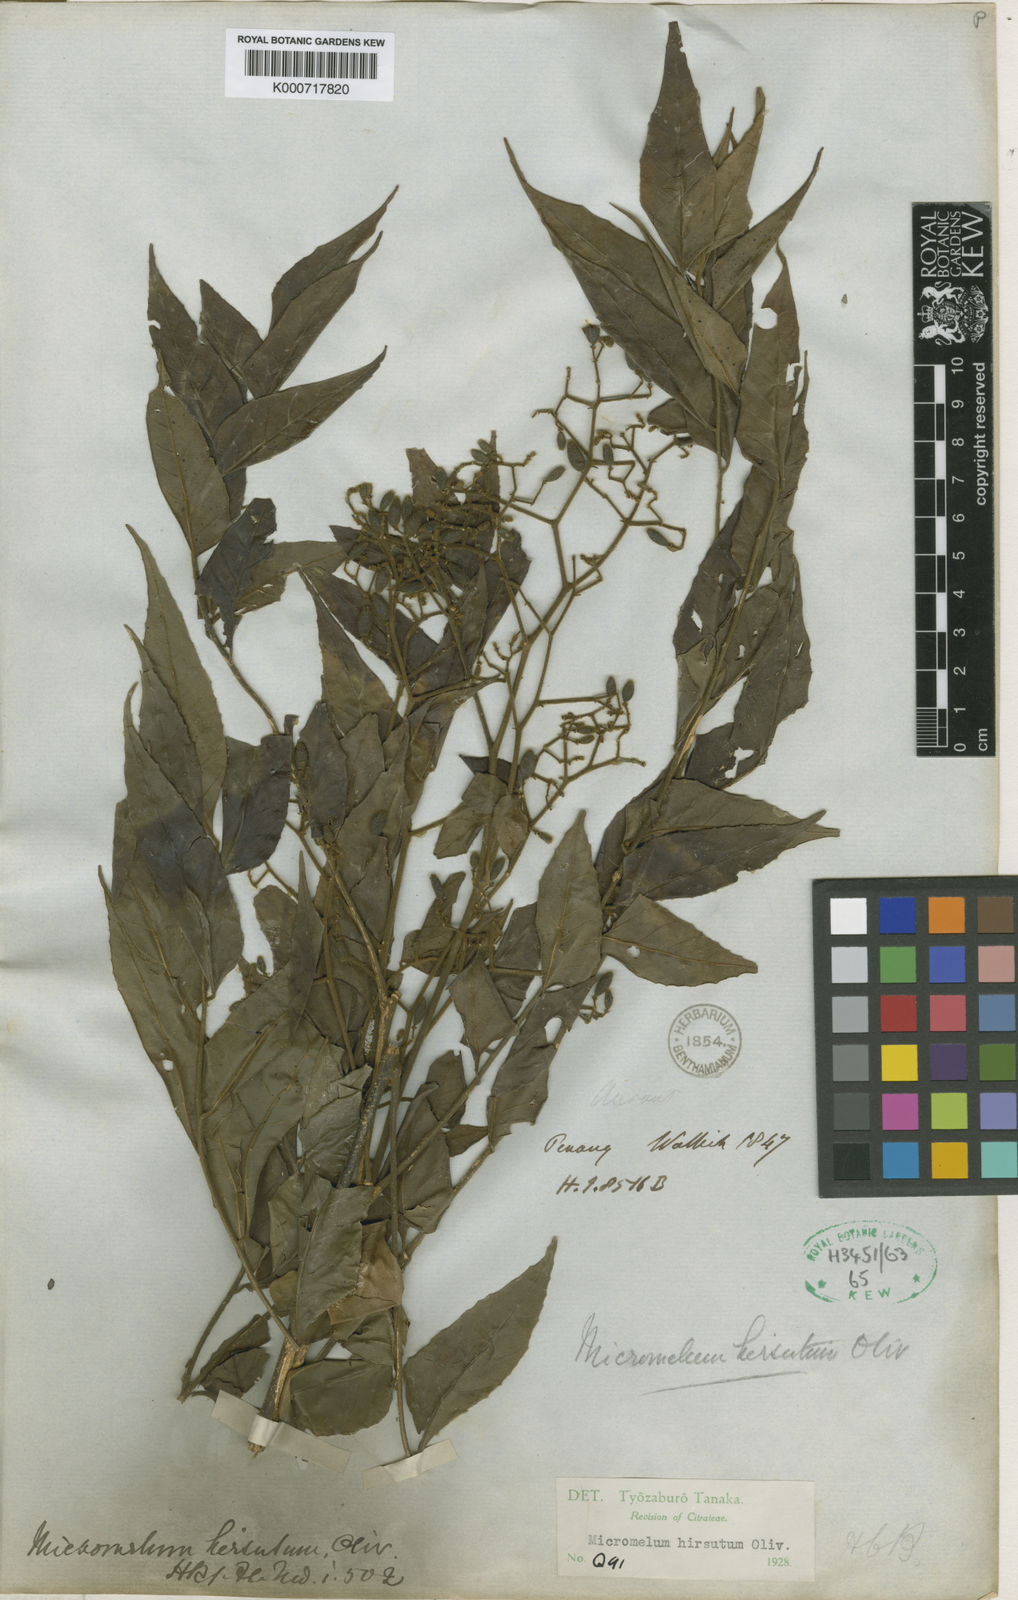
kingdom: Plantae
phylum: Tracheophyta
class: Magnoliopsida
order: Sapindales
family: Rutaceae
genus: Micromelum
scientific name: Micromelum hirsutum
